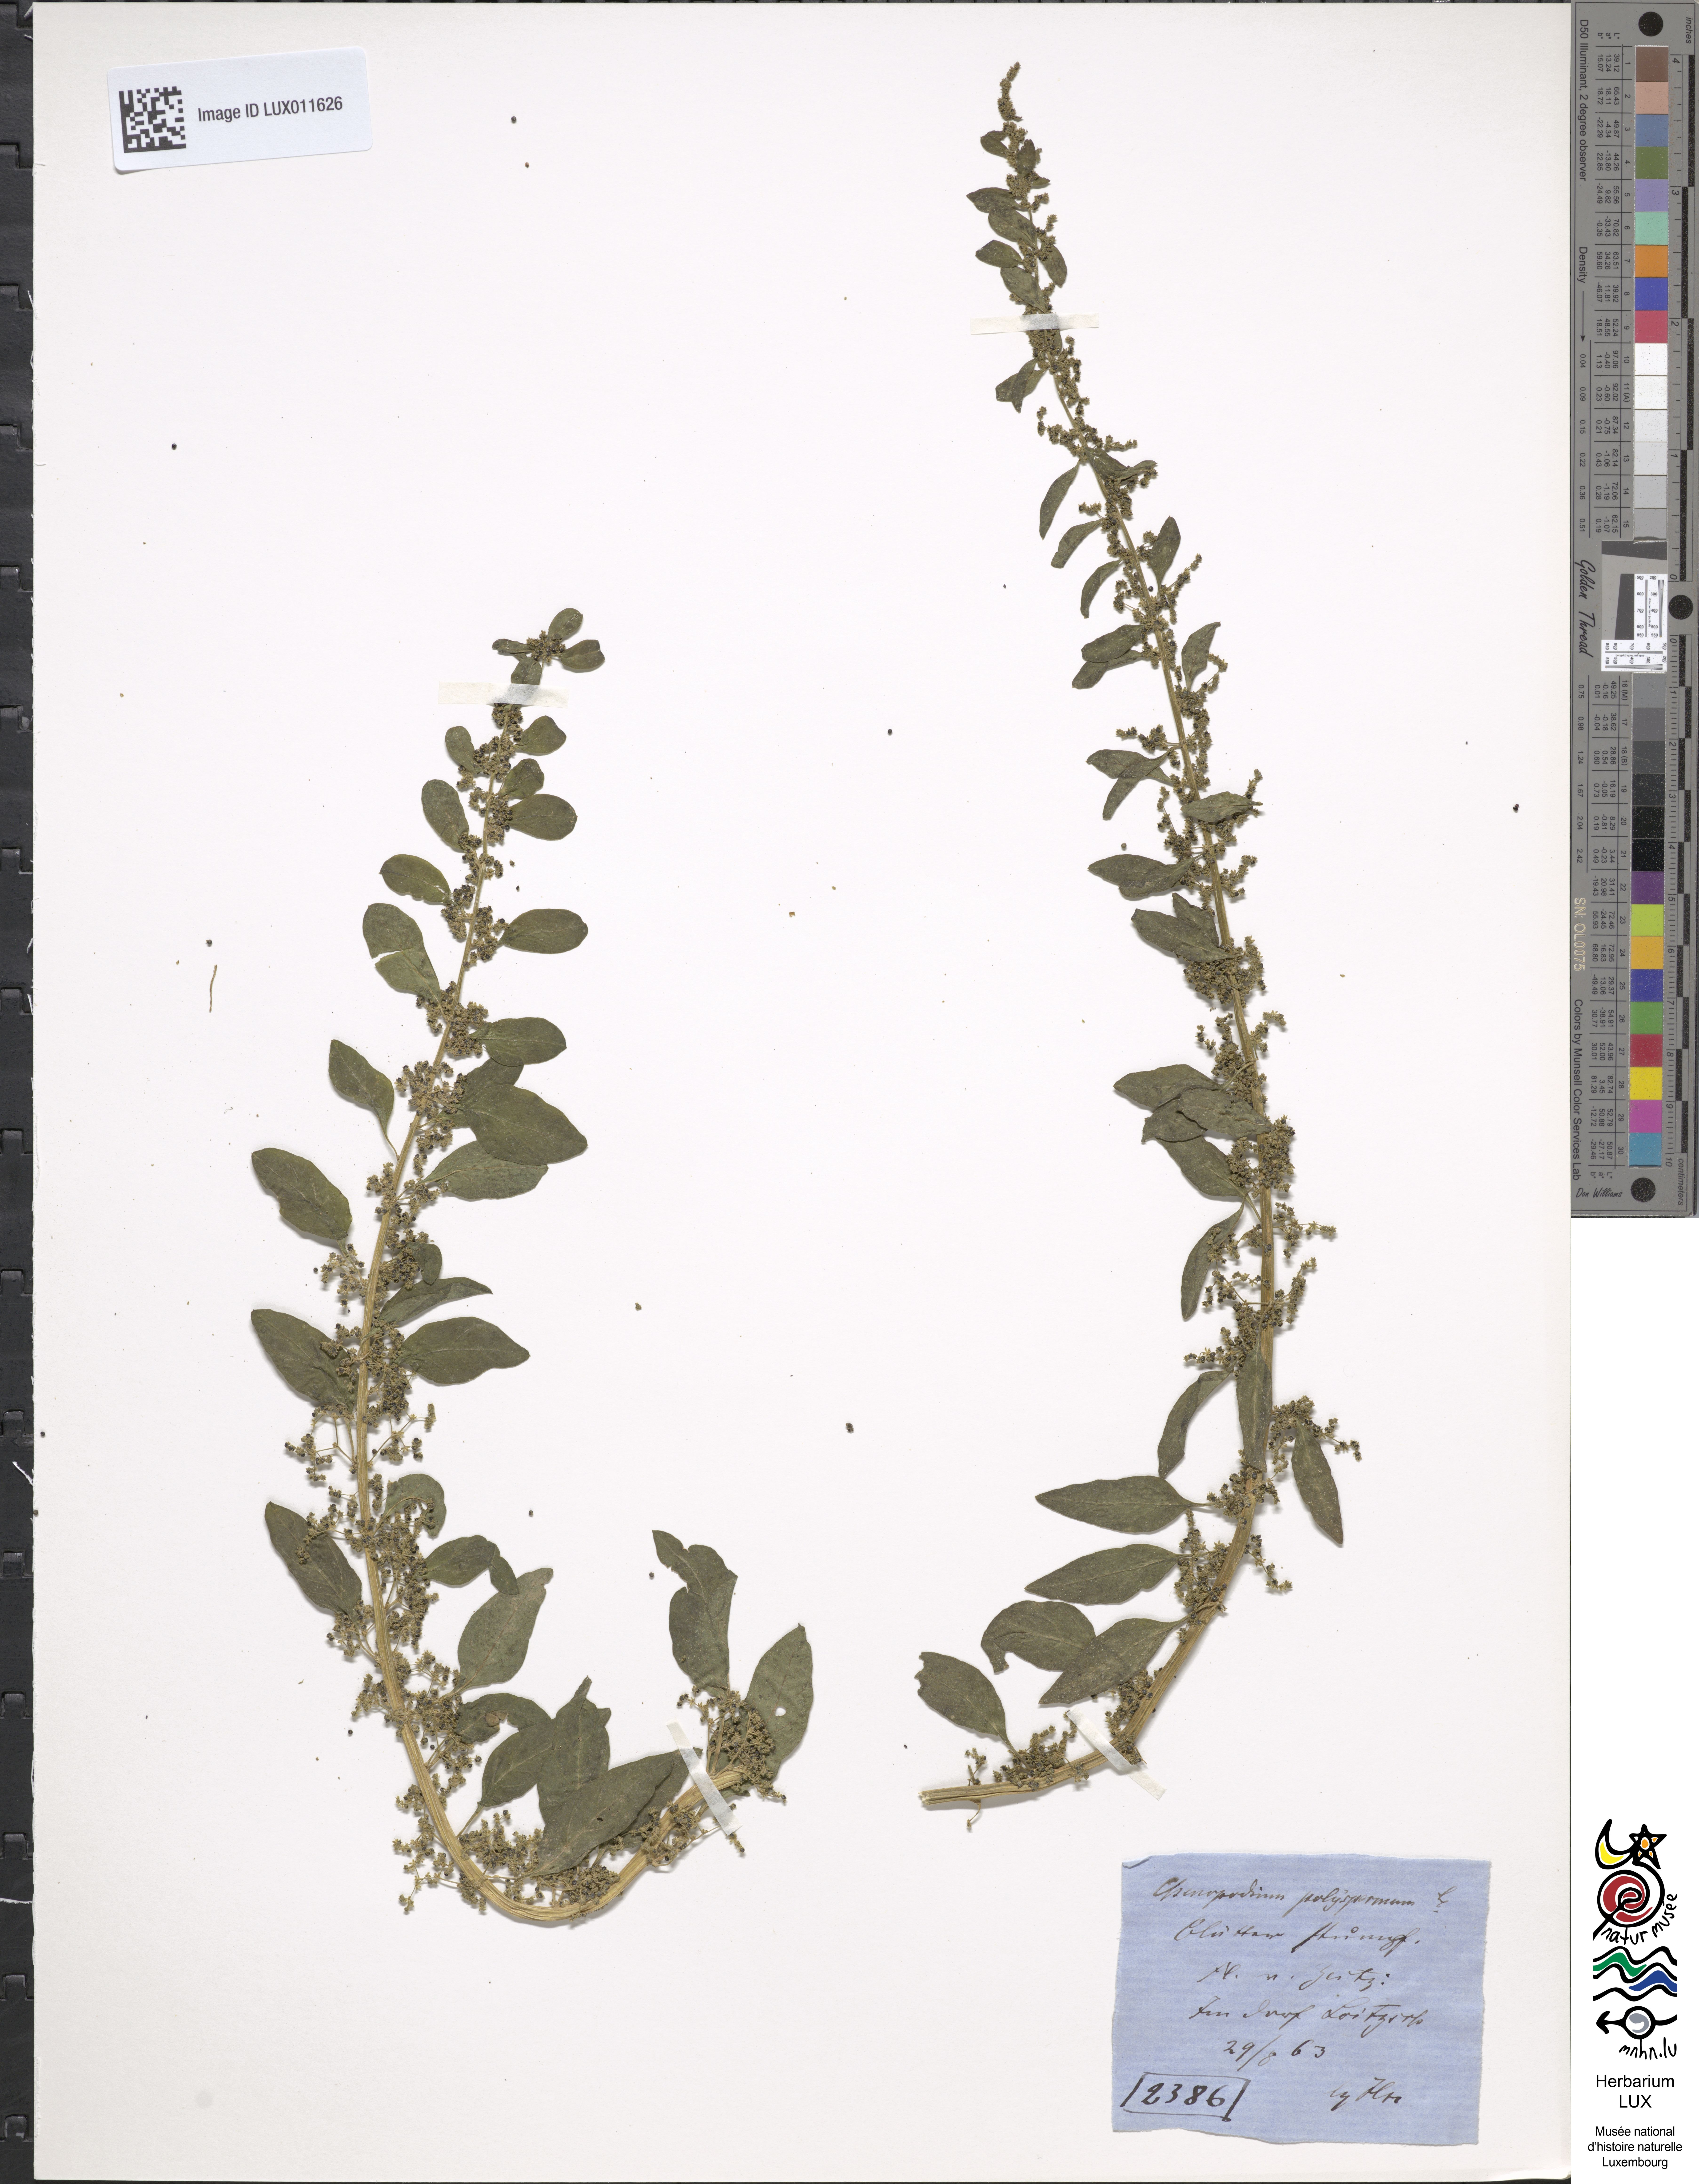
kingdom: Plantae
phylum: Tracheophyta
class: Magnoliopsida
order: Caryophyllales
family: Amaranthaceae
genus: Lipandra
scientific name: Lipandra polysperma
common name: Many-seed goosefoot
